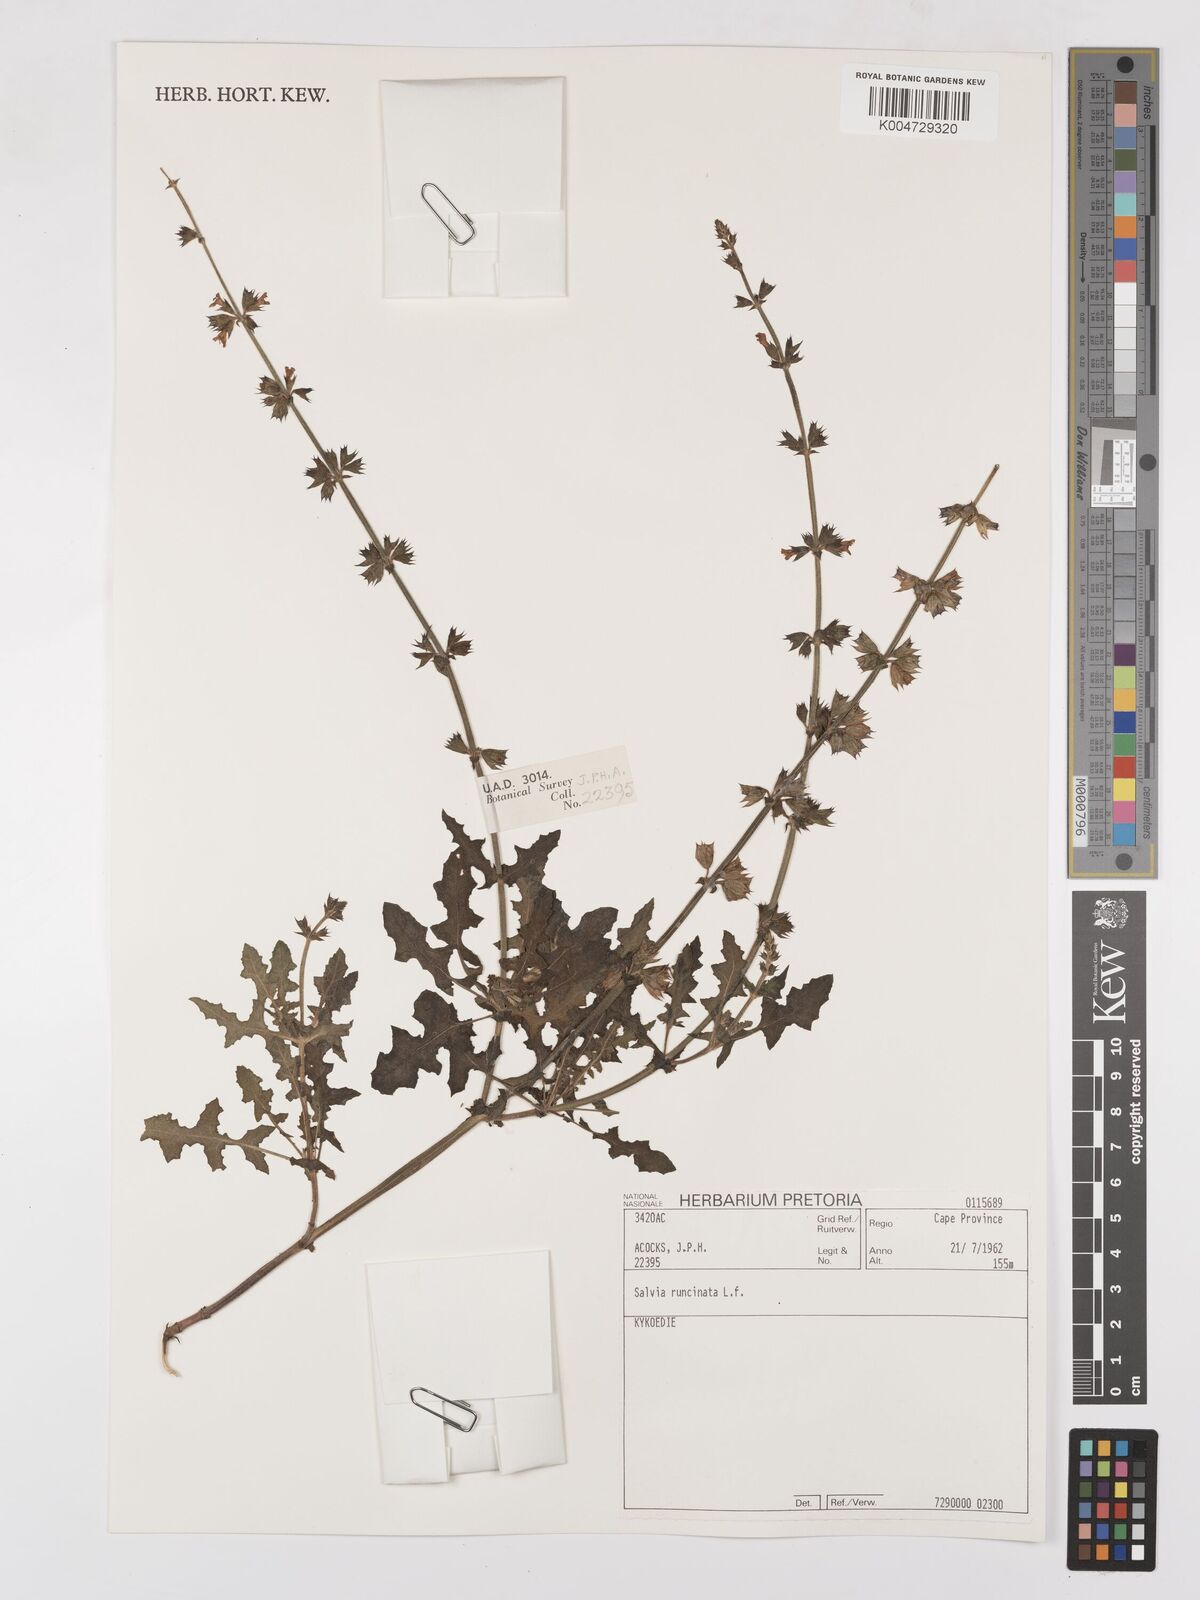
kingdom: Plantae
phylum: Tracheophyta
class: Magnoliopsida
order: Lamiales
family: Lamiaceae
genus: Salvia
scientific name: Salvia runcinata
